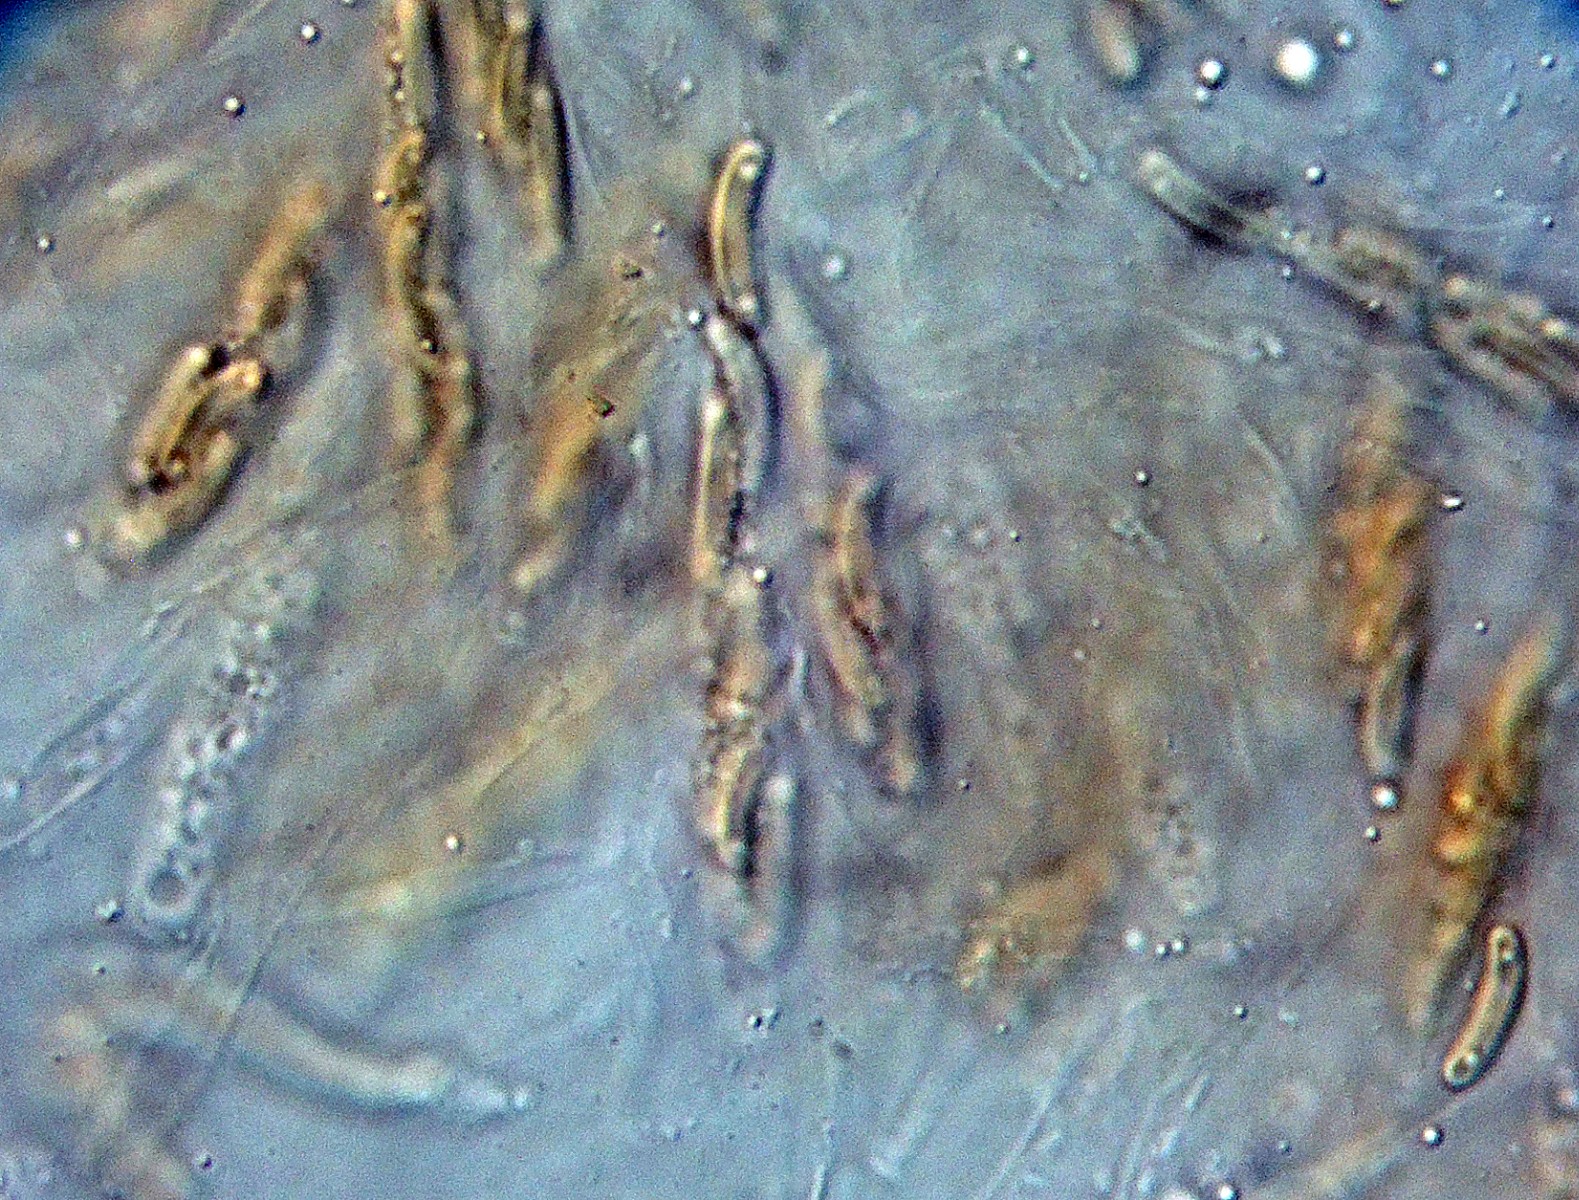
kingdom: Fungi
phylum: Ascomycota
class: Sordariomycetes
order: Xylariales
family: Diatrypaceae
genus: Diatrype
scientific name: Diatrype
